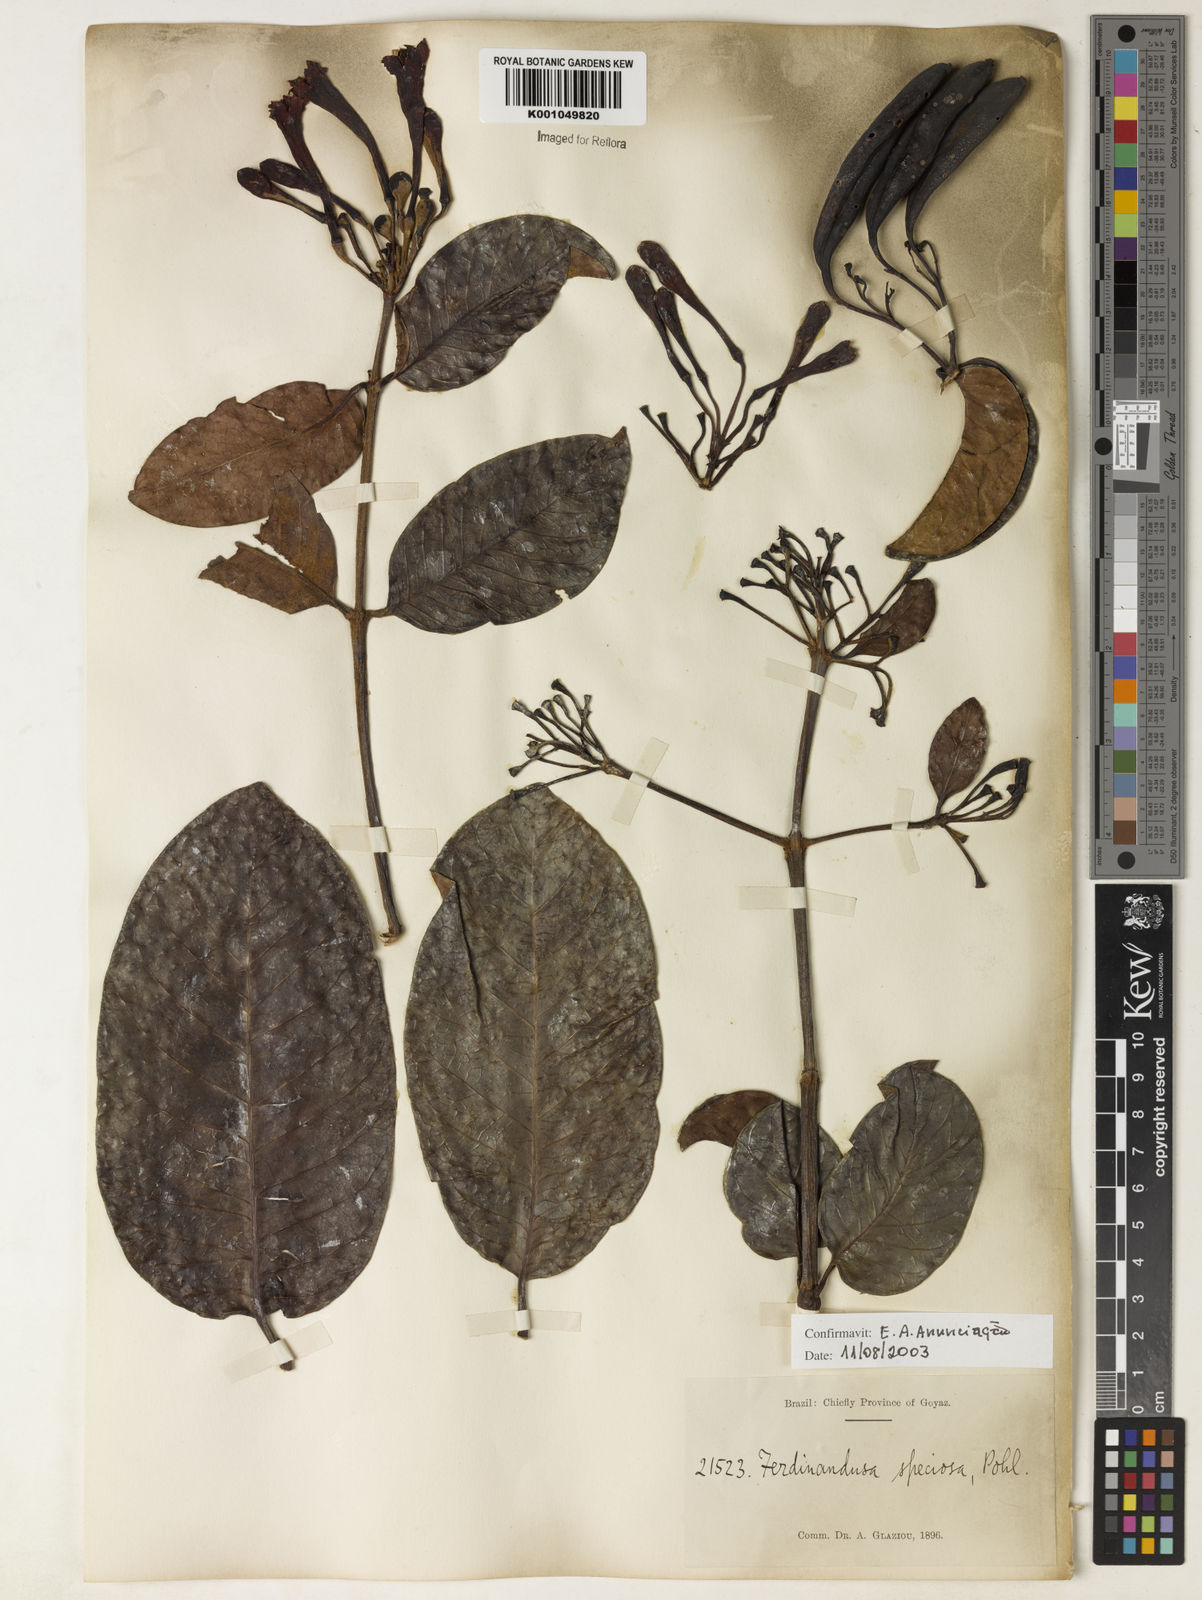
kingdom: Plantae
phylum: Tracheophyta
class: Magnoliopsida
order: Gentianales
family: Rubiaceae
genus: Ferdinandusa
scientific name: Ferdinandusa speciosa
